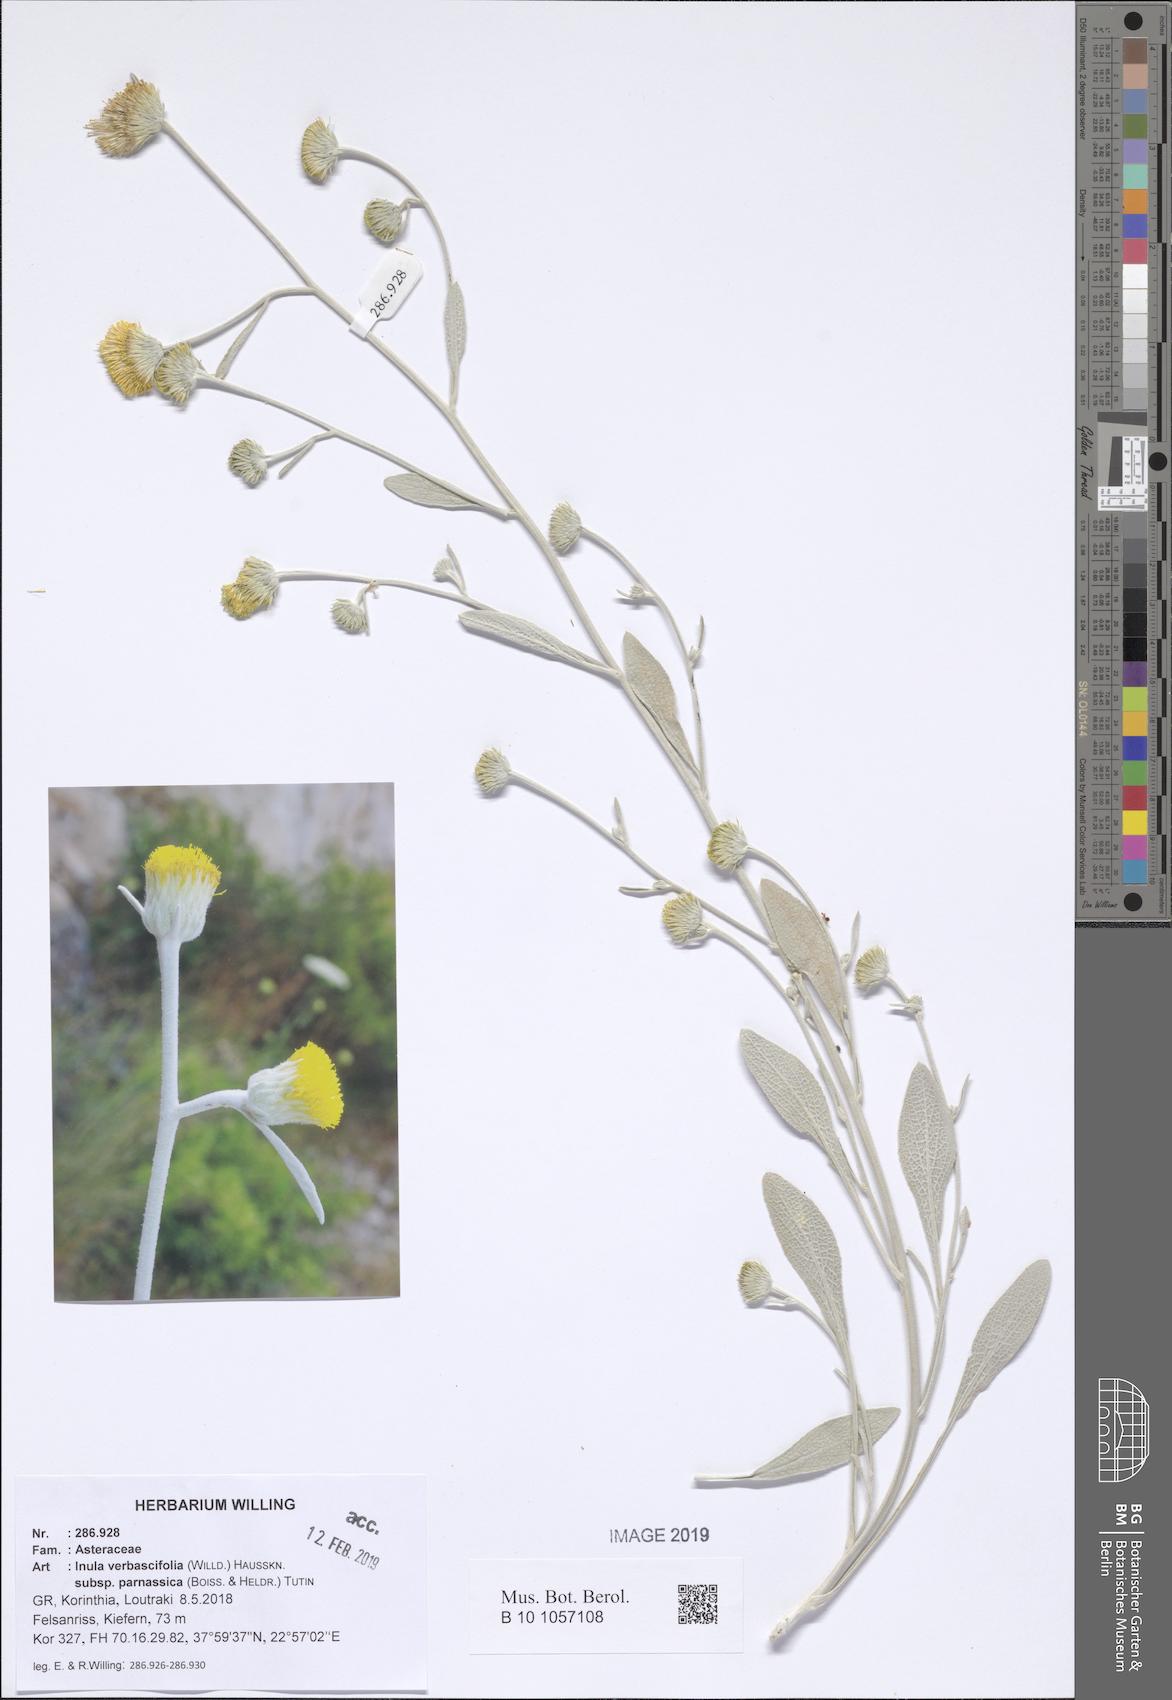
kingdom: Plantae
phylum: Tracheophyta
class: Magnoliopsida
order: Asterales
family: Asteraceae
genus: Pentanema
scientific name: Pentanema verbascifolium
